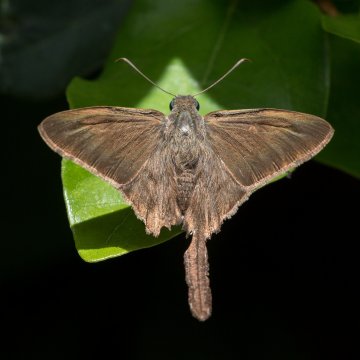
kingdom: Animalia
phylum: Arthropoda
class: Insecta
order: Lepidoptera
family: Hesperiidae
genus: Urbanus
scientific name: Urbanus
